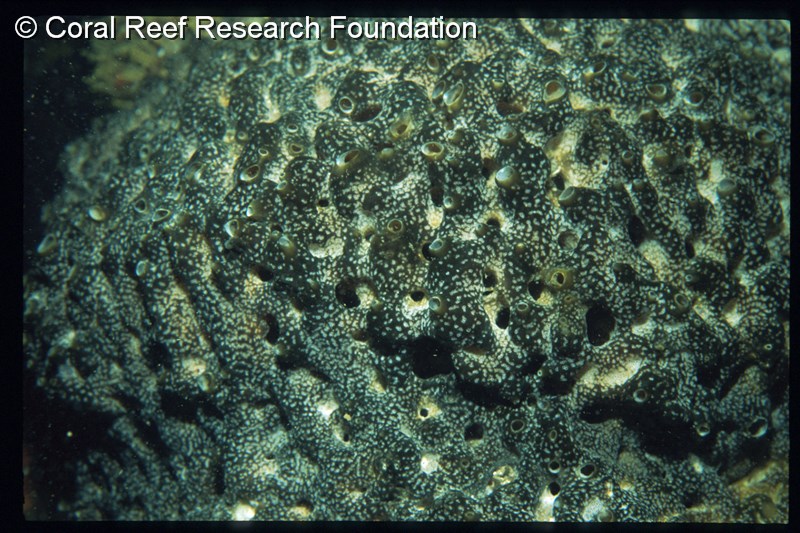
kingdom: Animalia
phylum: Chordata
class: Ascidiacea
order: Aplousobranchia
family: Didemnidae
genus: Trididemnum
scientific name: Trididemnum cerebriforme
